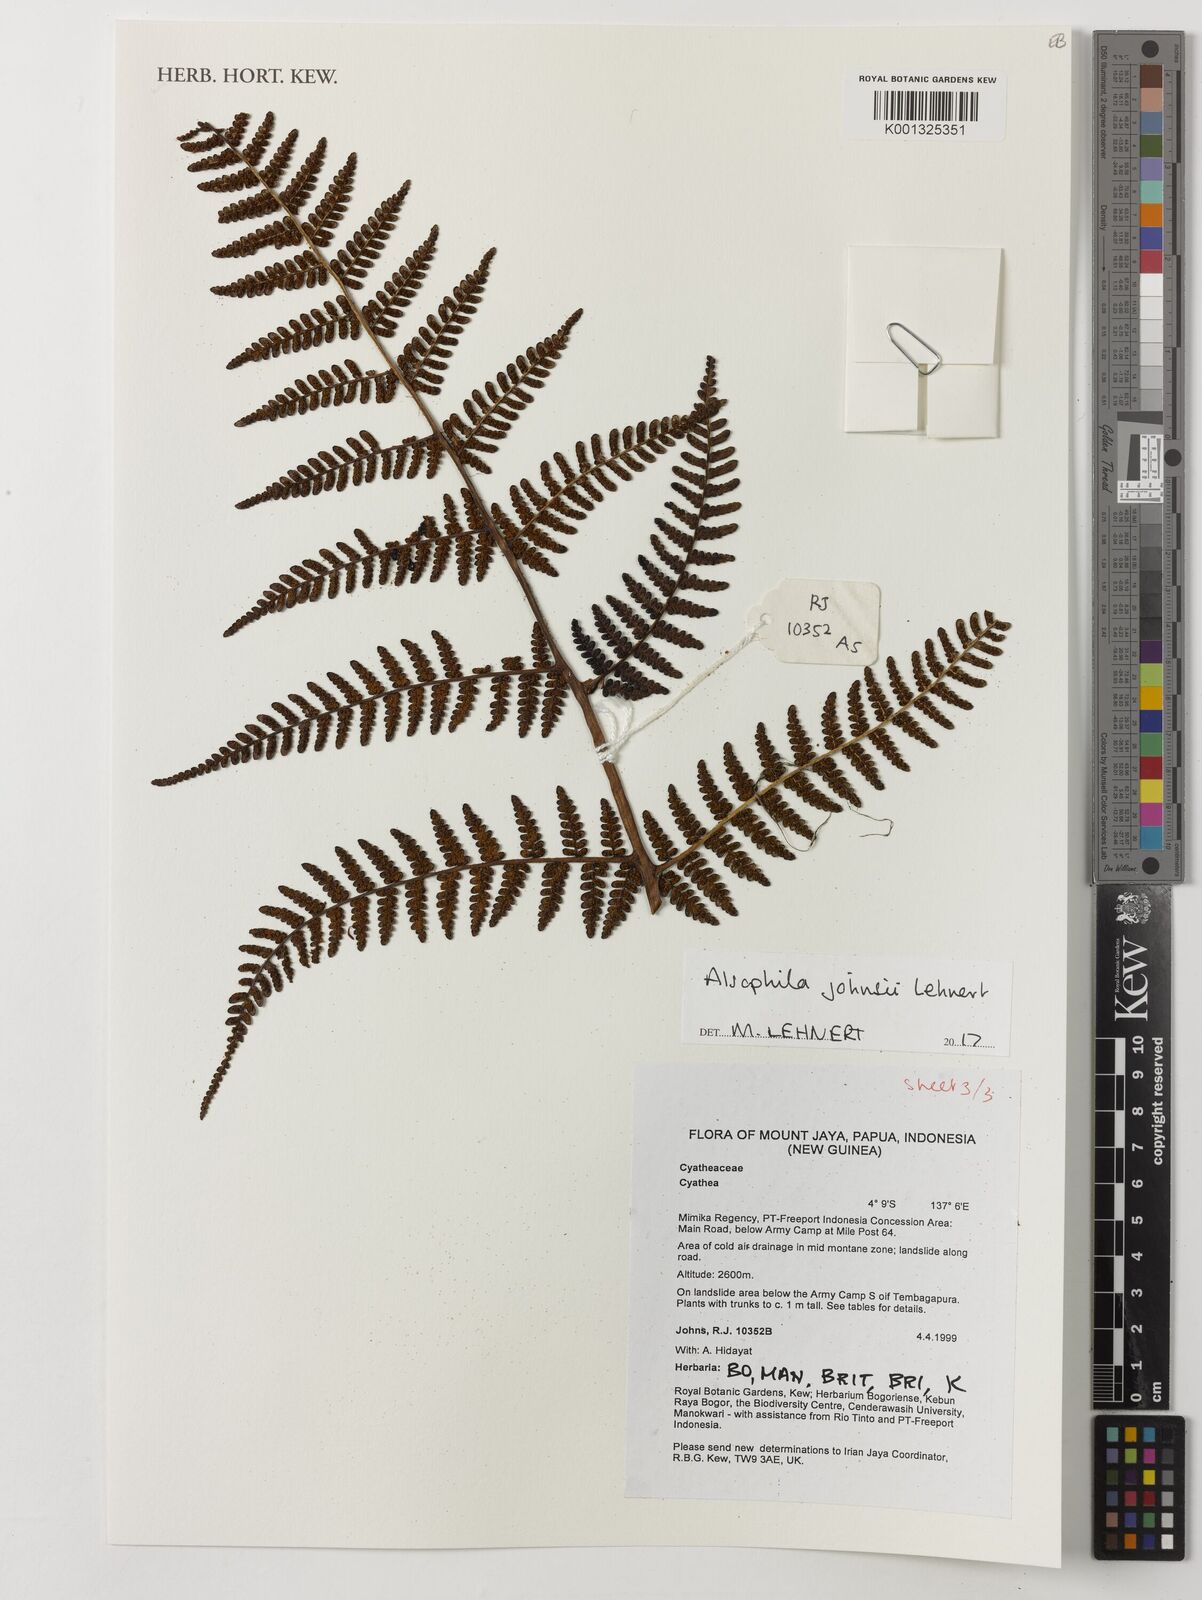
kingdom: Plantae
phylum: Tracheophyta
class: Polypodiopsida
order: Cyatheales
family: Cyatheaceae
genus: Alsophila
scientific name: Alsophila johnsii
